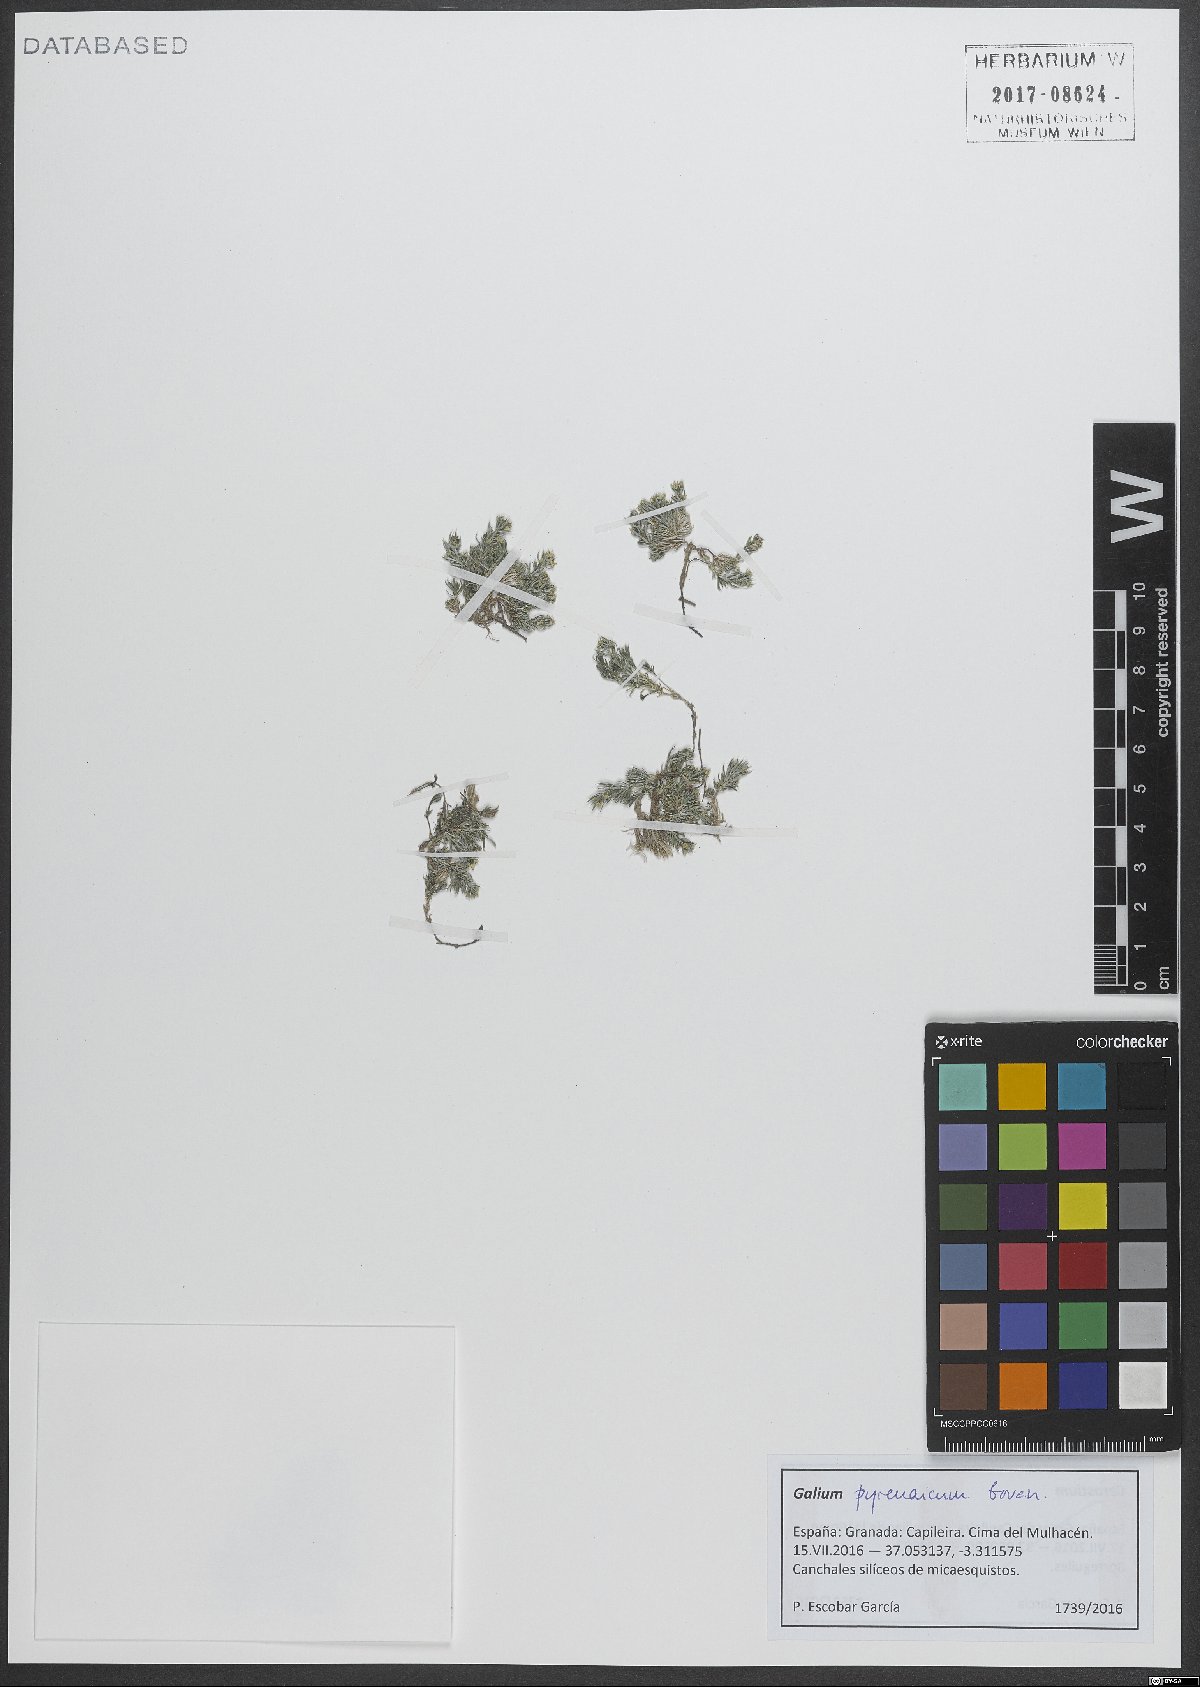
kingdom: Plantae
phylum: Tracheophyta
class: Magnoliopsida
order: Gentianales
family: Rubiaceae
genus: Galium
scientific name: Galium pyrenaicum
